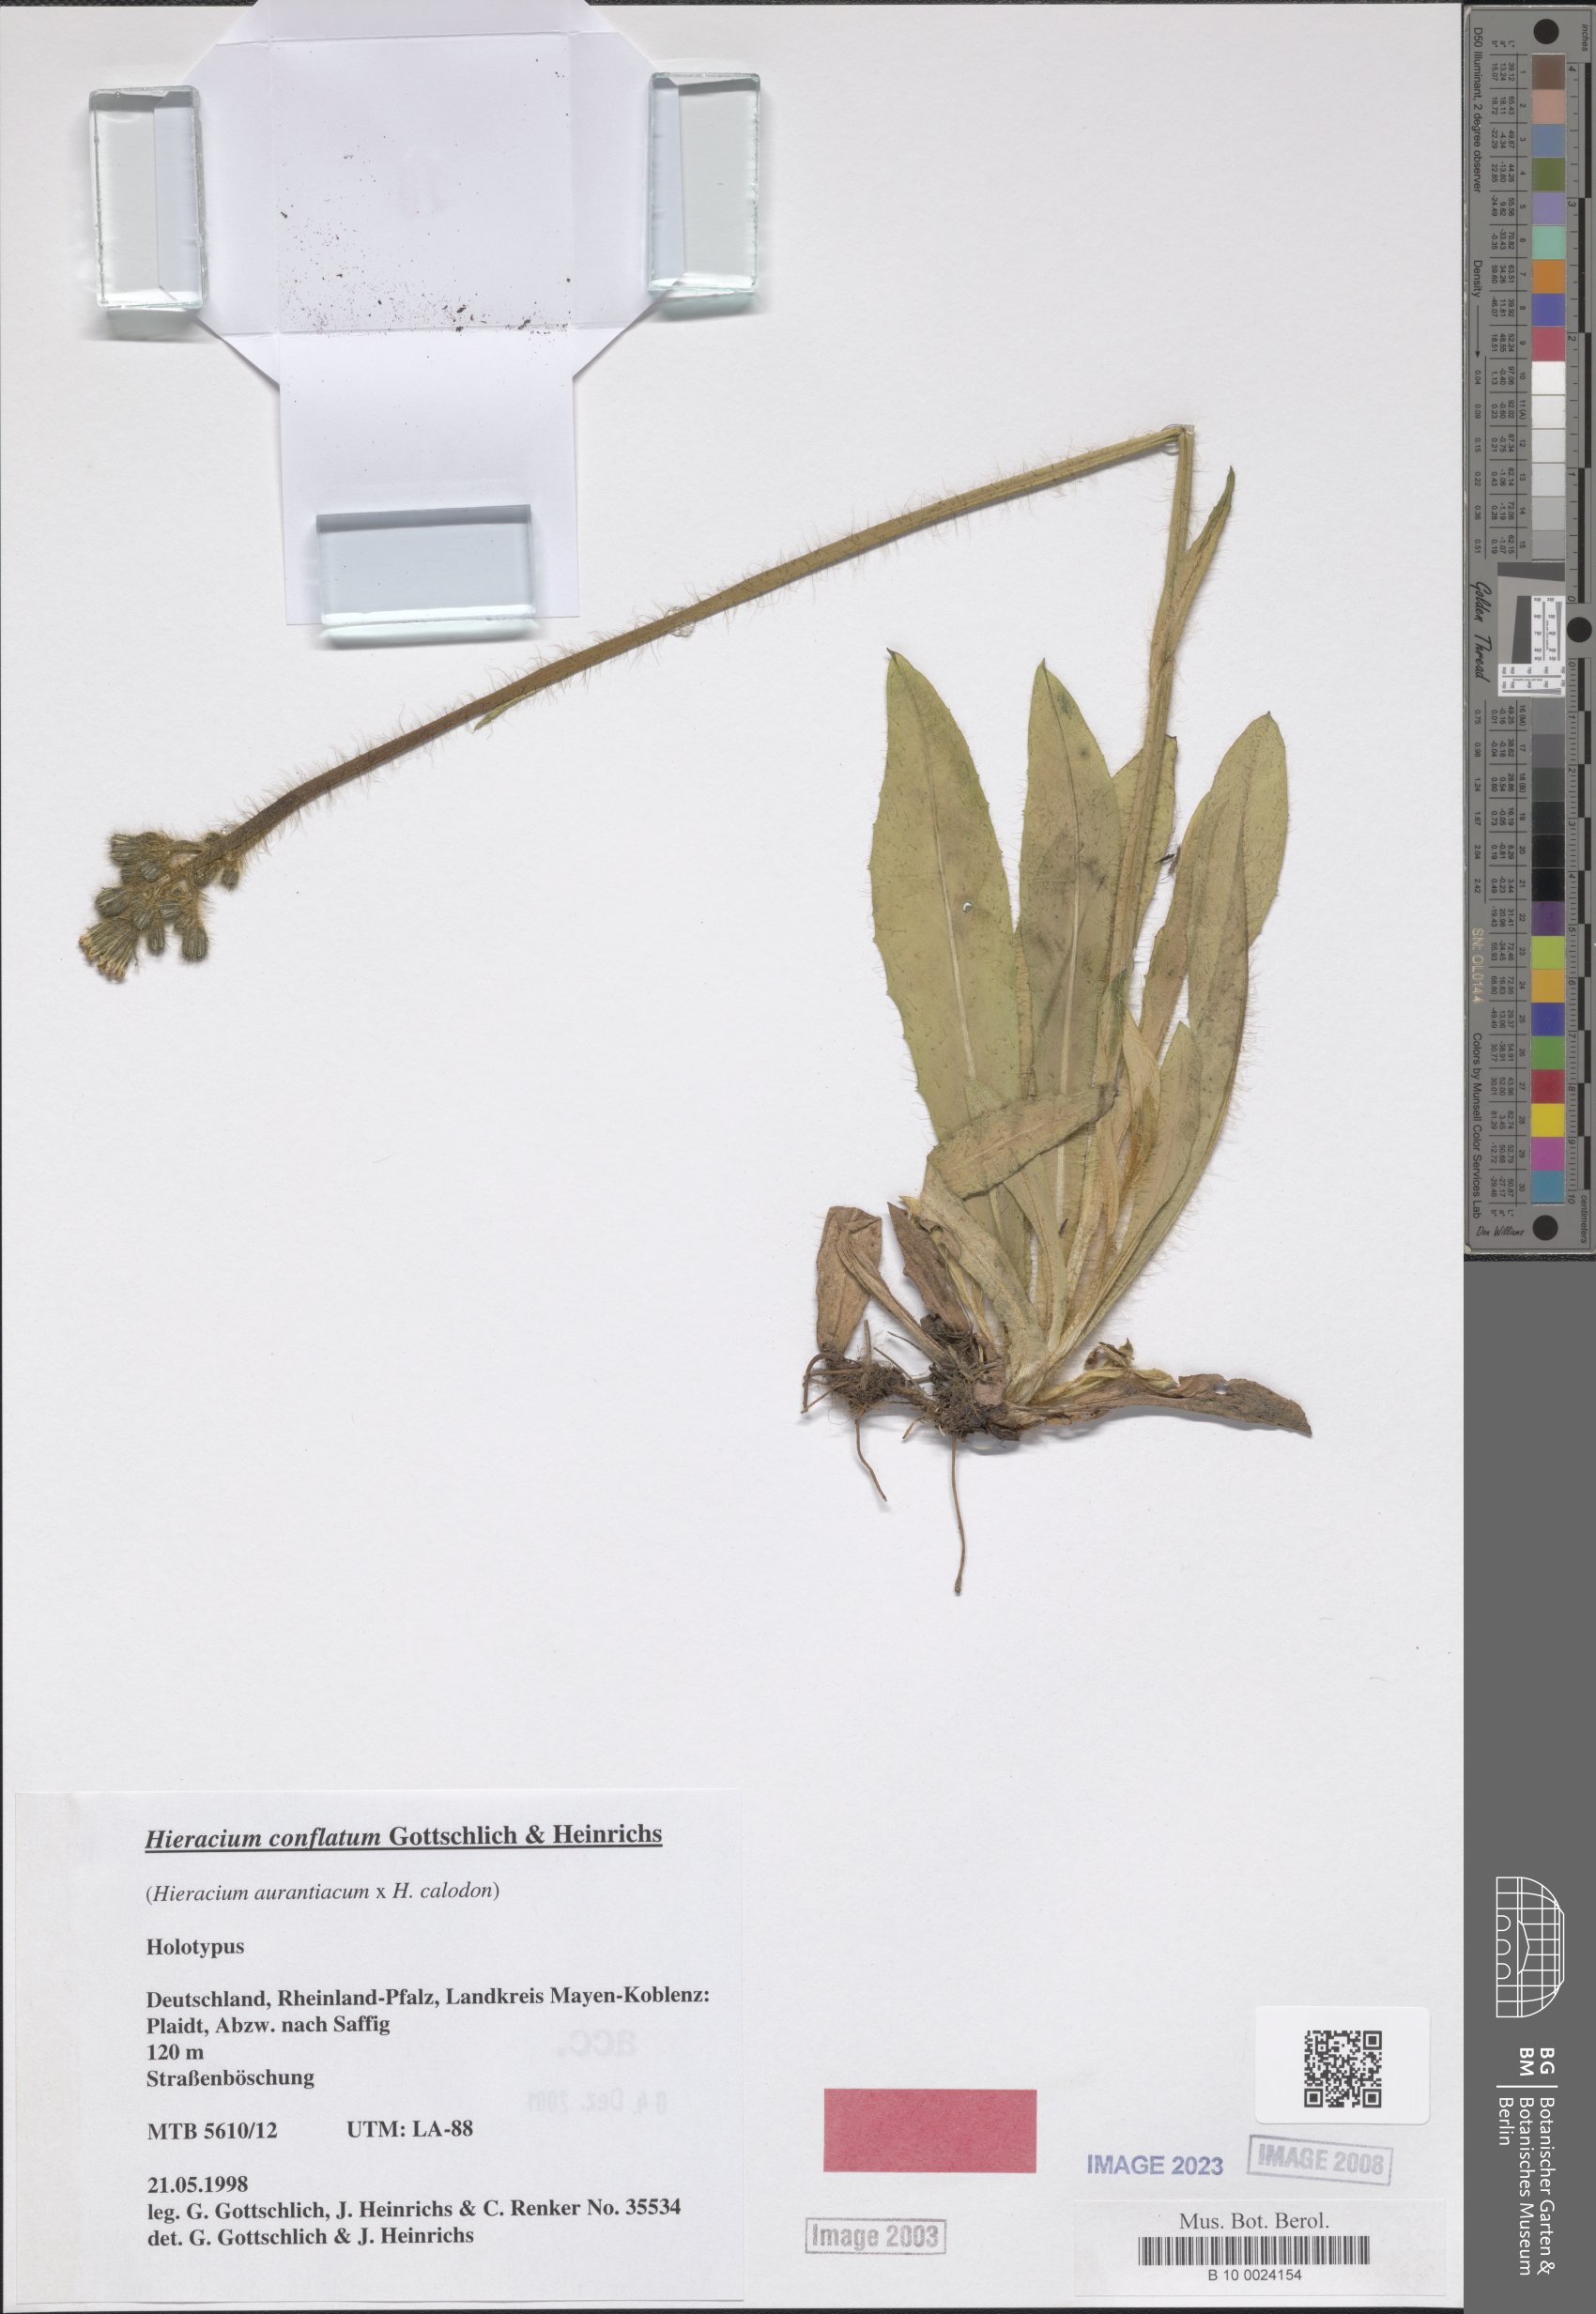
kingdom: Plantae
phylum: Tracheophyta
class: Magnoliopsida
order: Asterales
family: Asteraceae
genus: Pilosella
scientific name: Pilosella conflata
